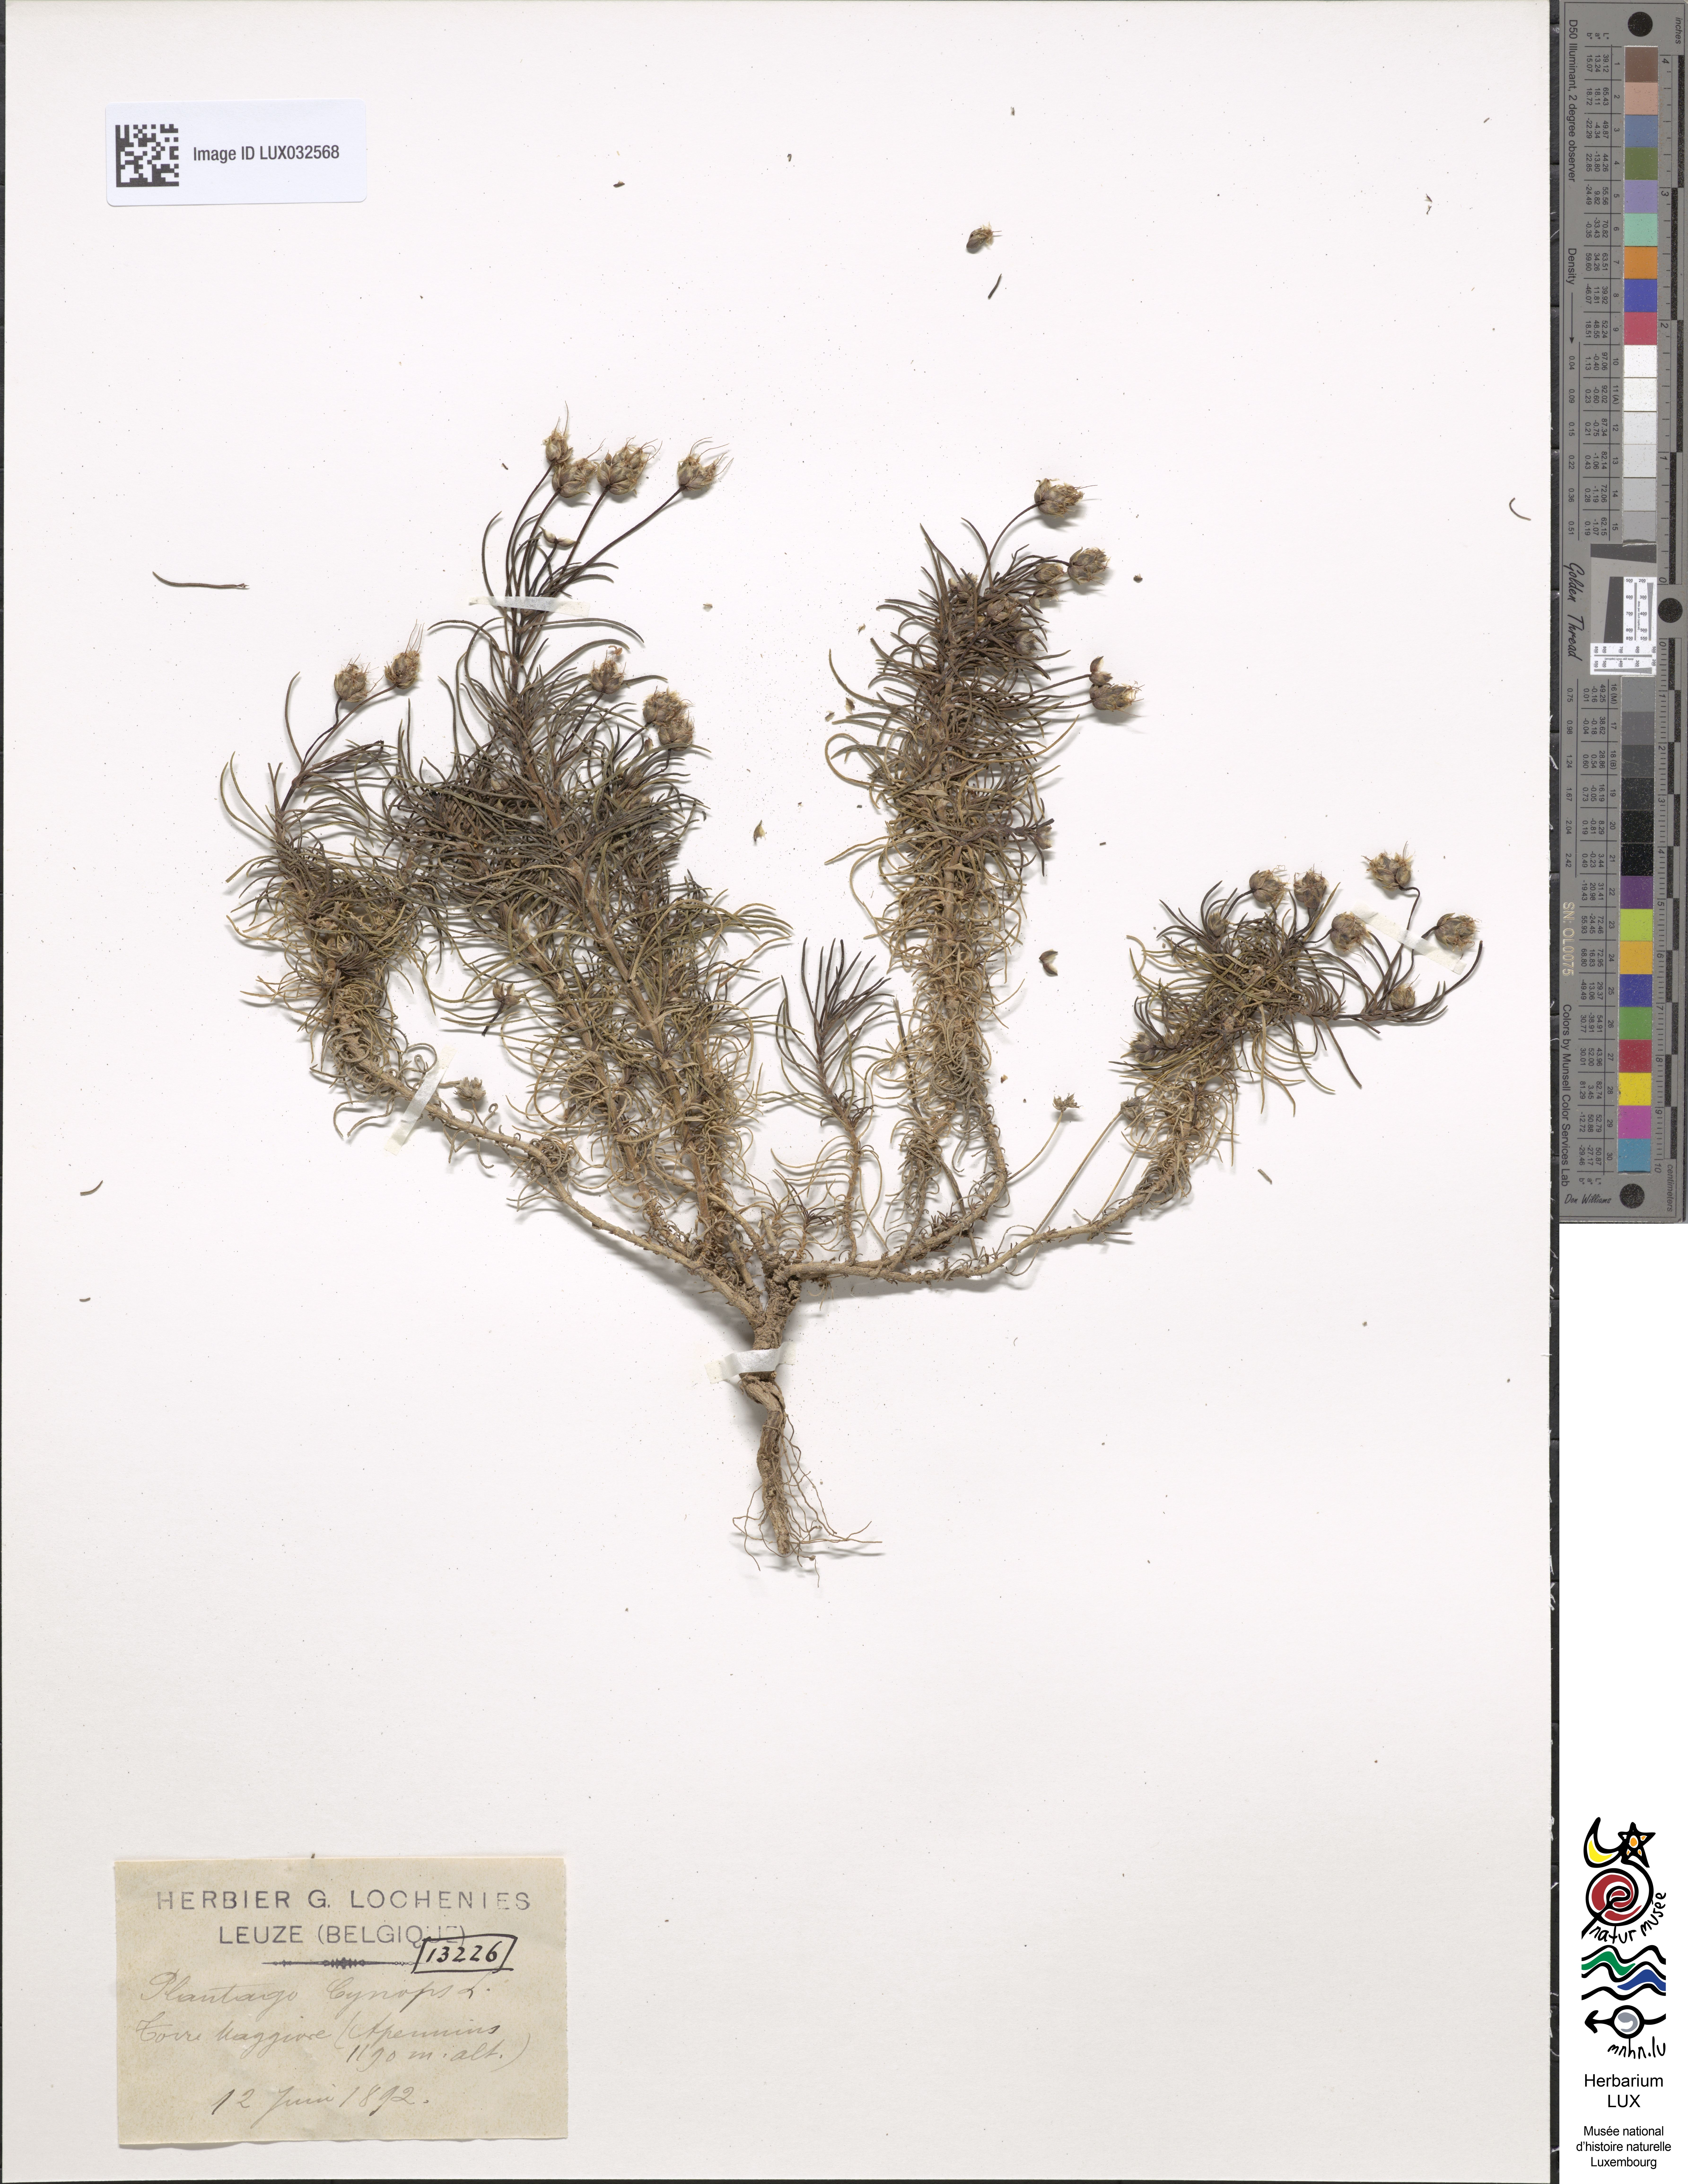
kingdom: Plantae
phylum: Tracheophyta
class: Magnoliopsida
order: Lamiales
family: Plantaginaceae
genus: Plantago
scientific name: Plantago sempervirens
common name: Shrubby plantain
